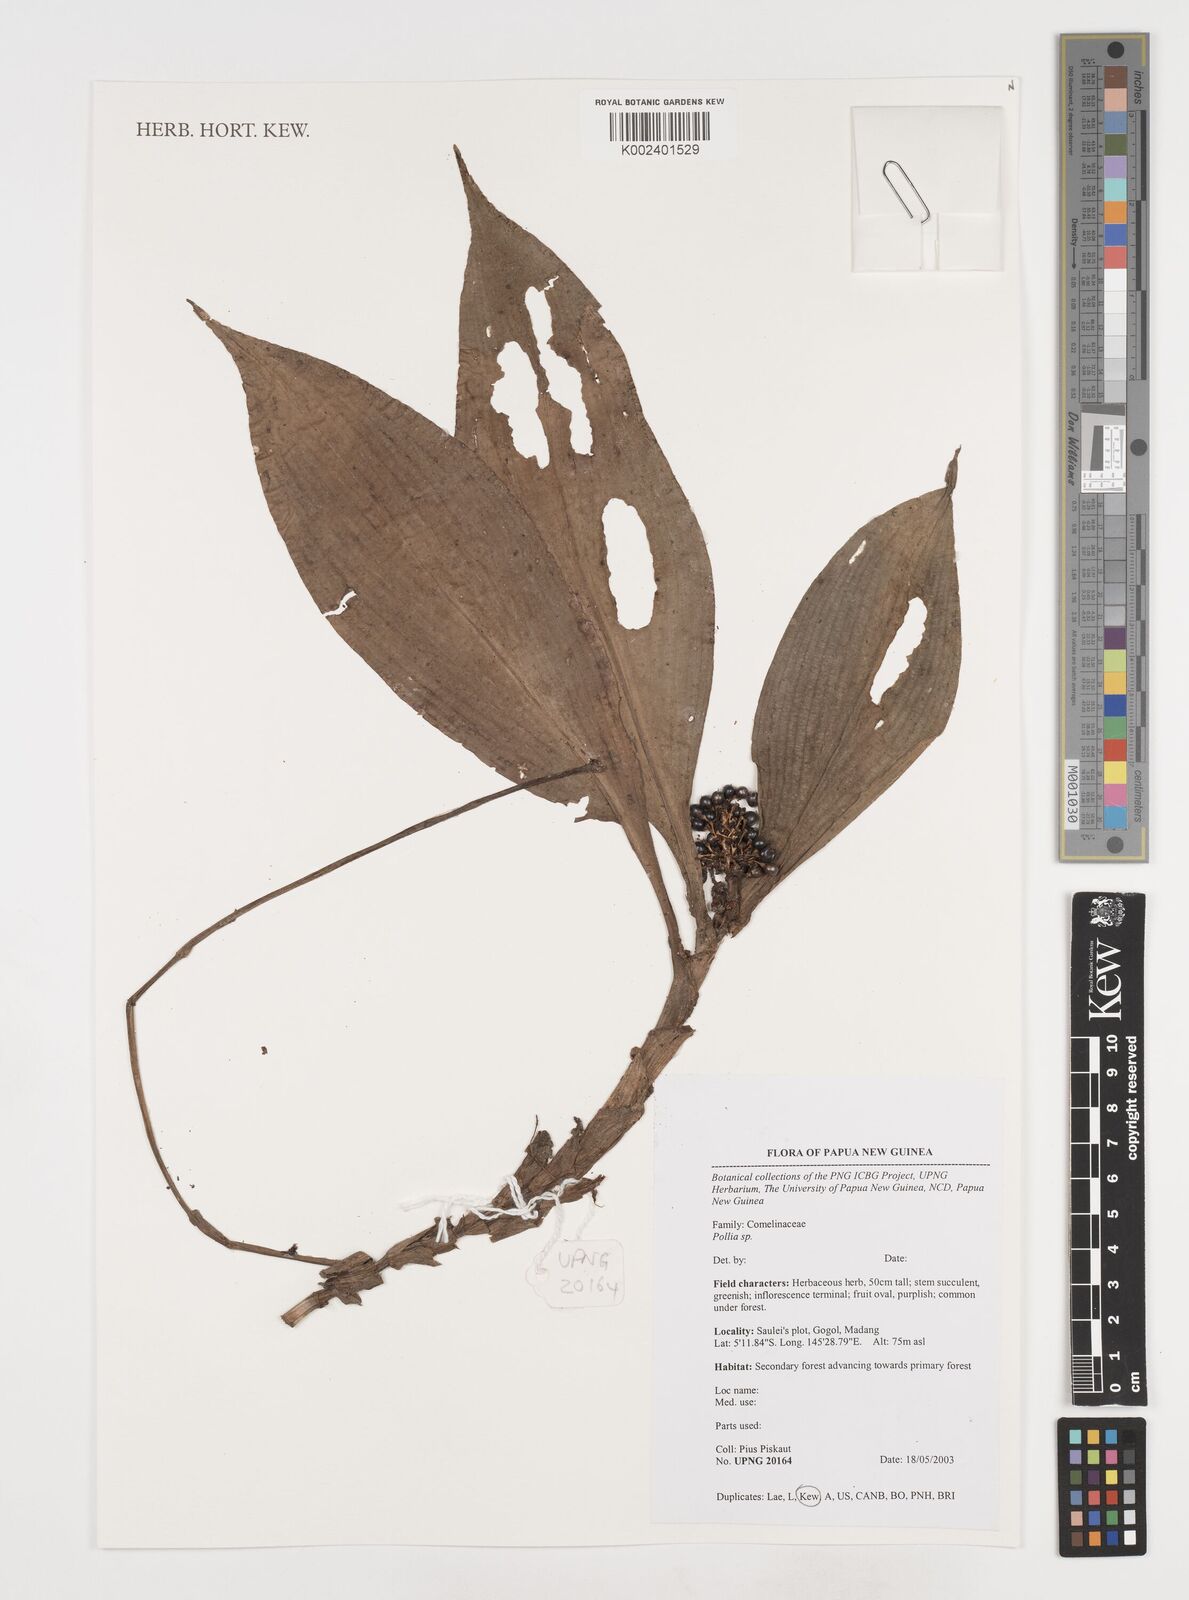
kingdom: Plantae
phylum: Tracheophyta
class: Liliopsida
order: Commelinales
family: Commelinaceae
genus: Pollia
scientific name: Pollia
